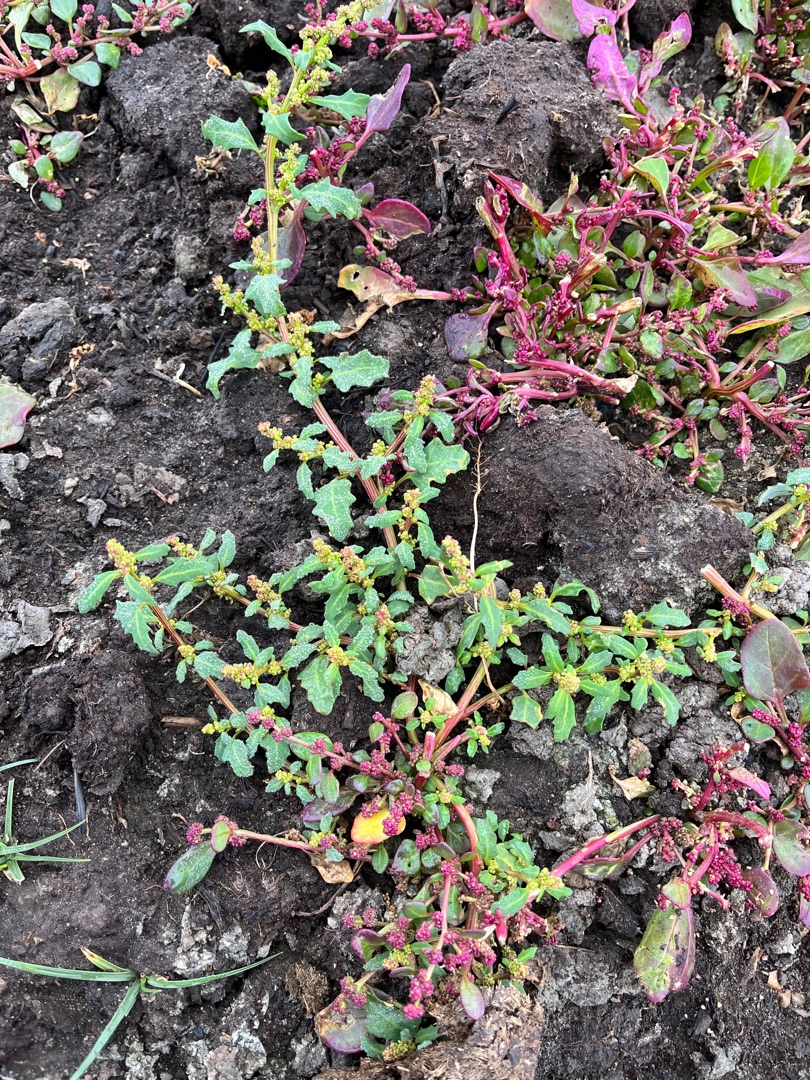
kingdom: Plantae
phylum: Tracheophyta
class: Magnoliopsida
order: Caryophyllales
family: Amaranthaceae
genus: Oxybasis
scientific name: Oxybasis glauca
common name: Blågrøn gåsefod
